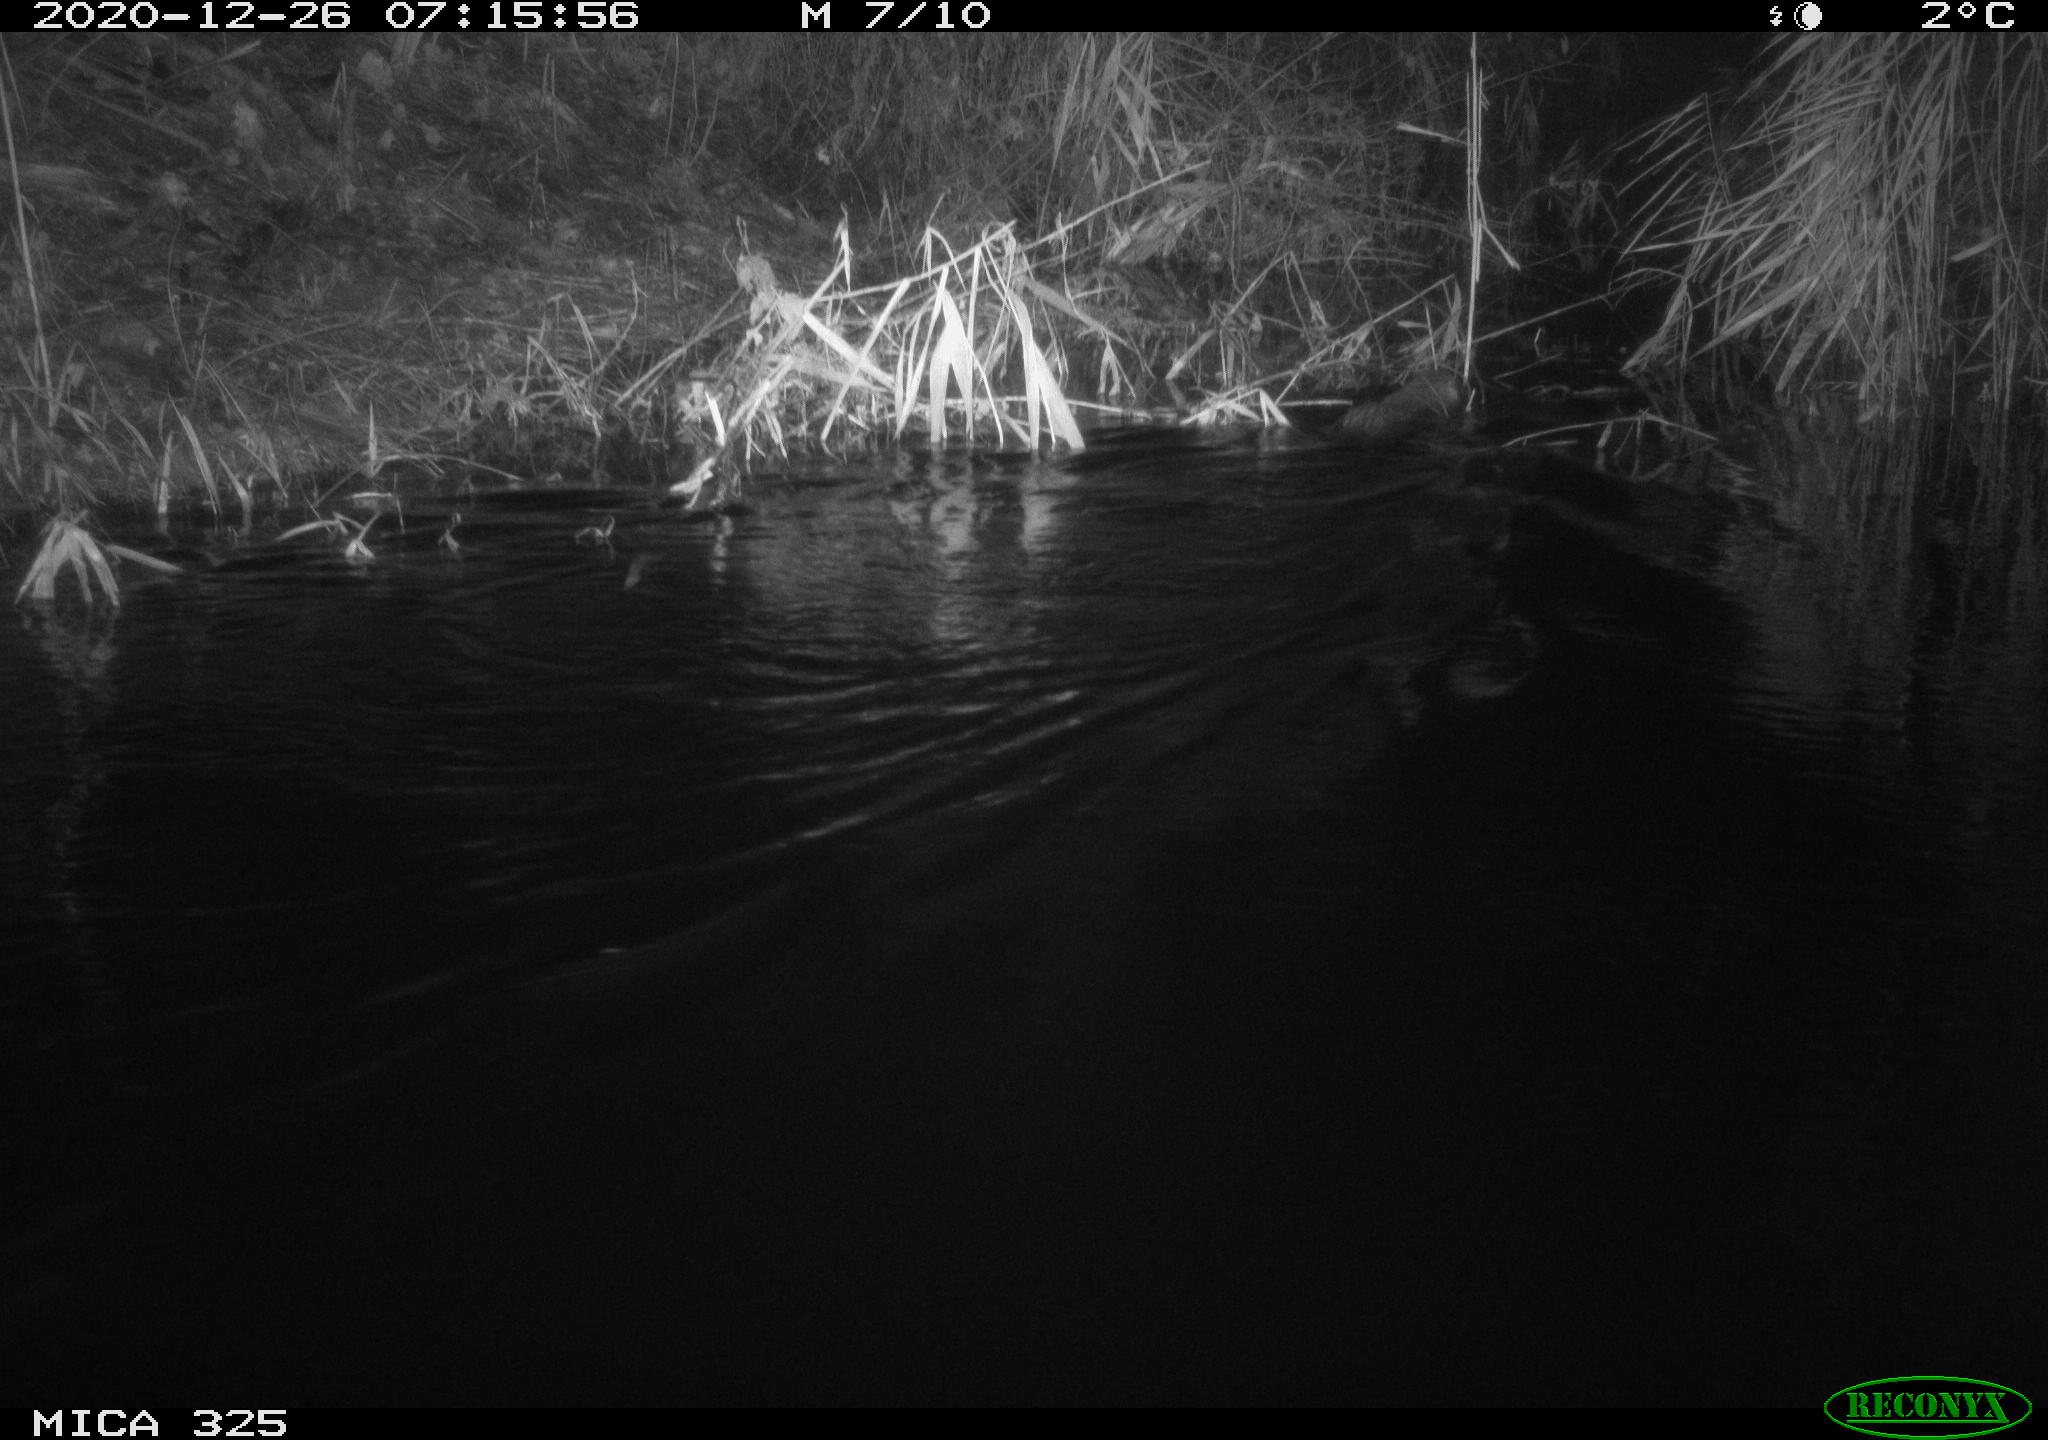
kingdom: Animalia
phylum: Chordata
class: Mammalia
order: Rodentia
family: Myocastoridae
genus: Myocastor
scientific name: Myocastor coypus
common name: Coypu
